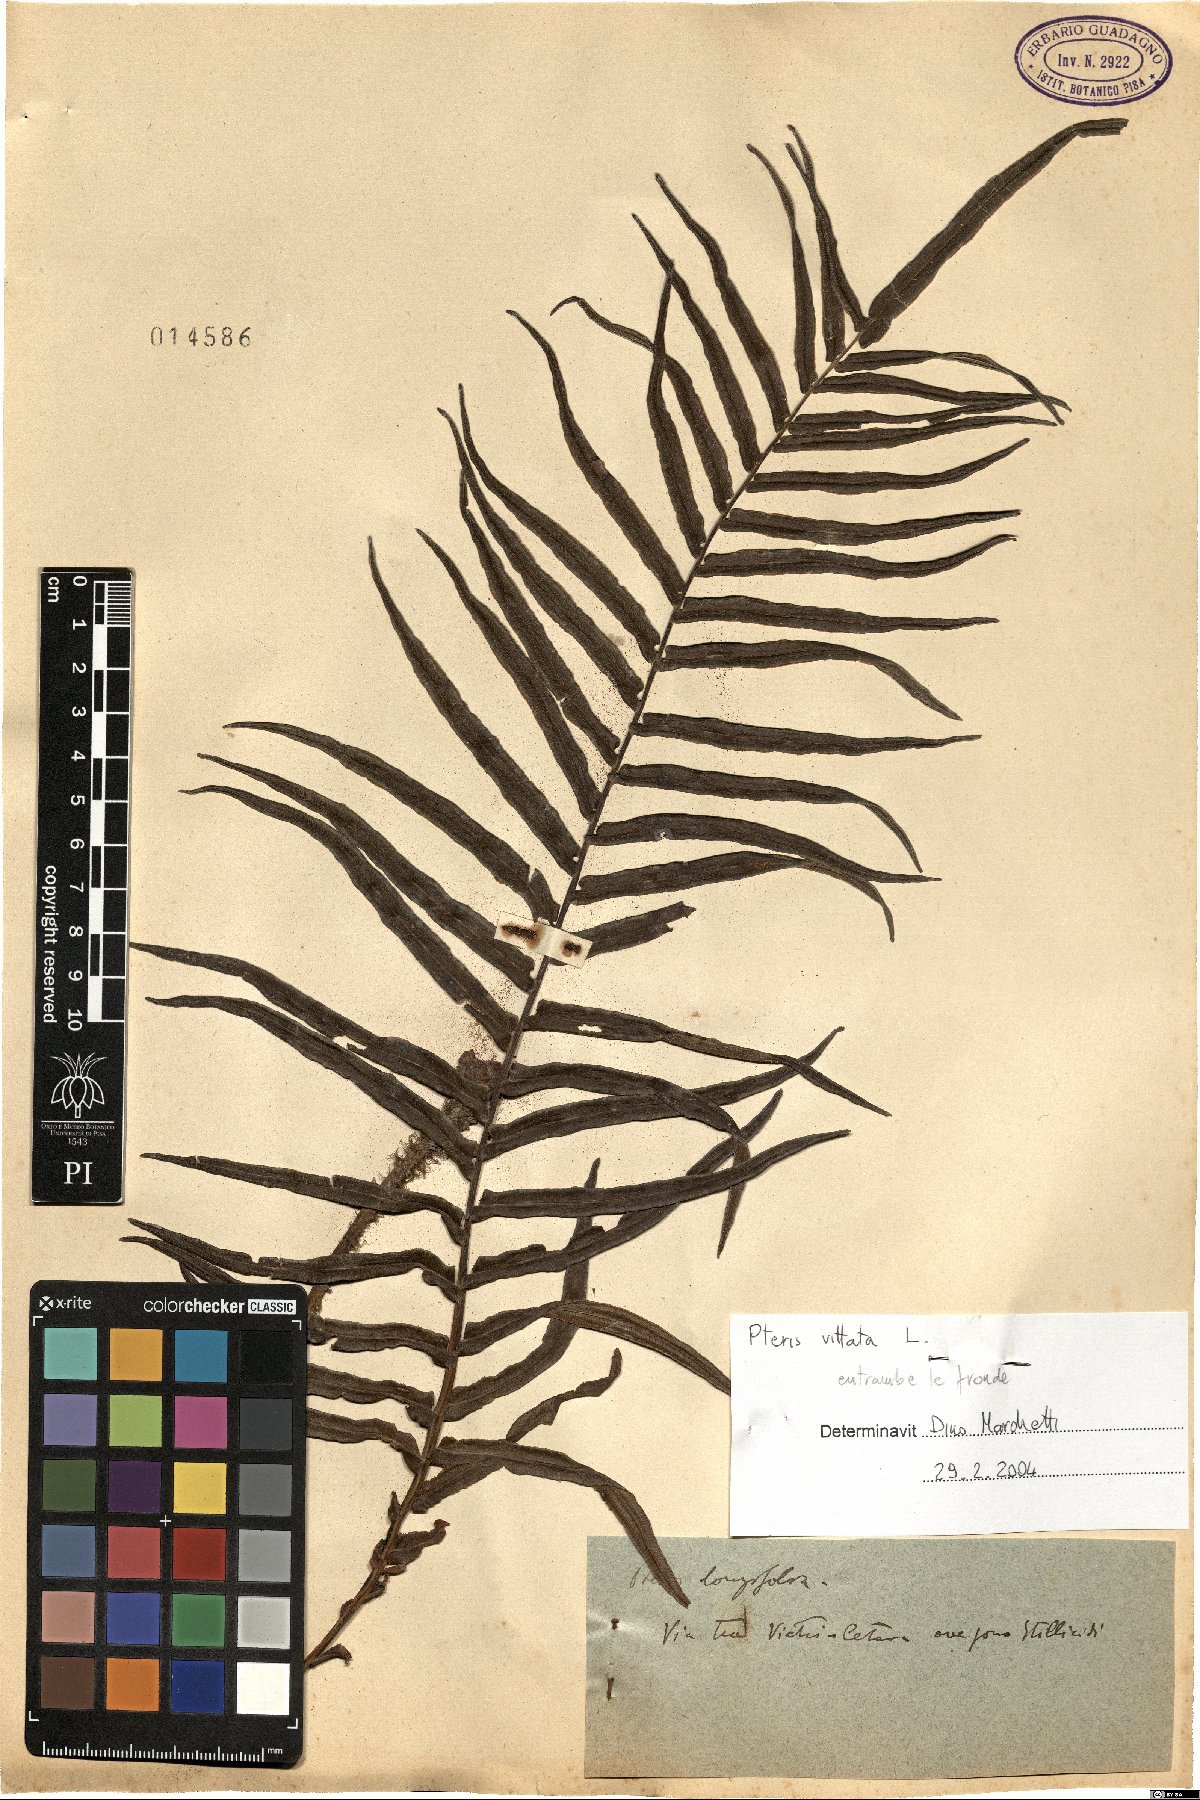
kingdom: Plantae
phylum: Tracheophyta
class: Polypodiopsida
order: Polypodiales
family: Pteridaceae
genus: Pteris
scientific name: Pteris vittata
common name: Ladder brake
